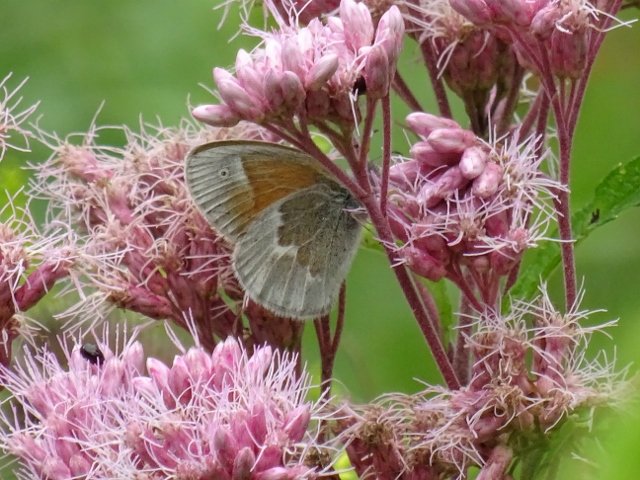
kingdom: Animalia
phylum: Arthropoda
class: Insecta
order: Lepidoptera
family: Nymphalidae
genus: Coenonympha
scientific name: Coenonympha tullia
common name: Large Heath
